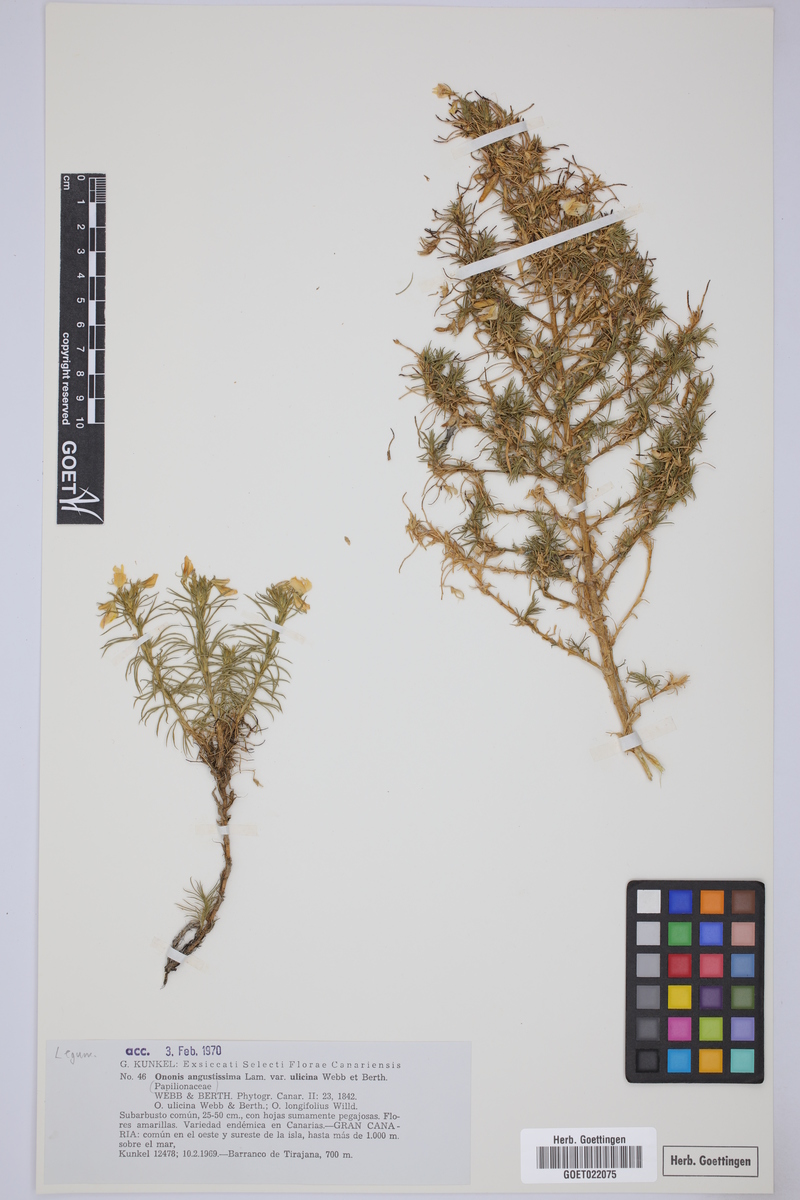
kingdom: Plantae
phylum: Tracheophyta
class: Magnoliopsida
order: Fabales
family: Fabaceae
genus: Ononis
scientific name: Ononis angustissima
